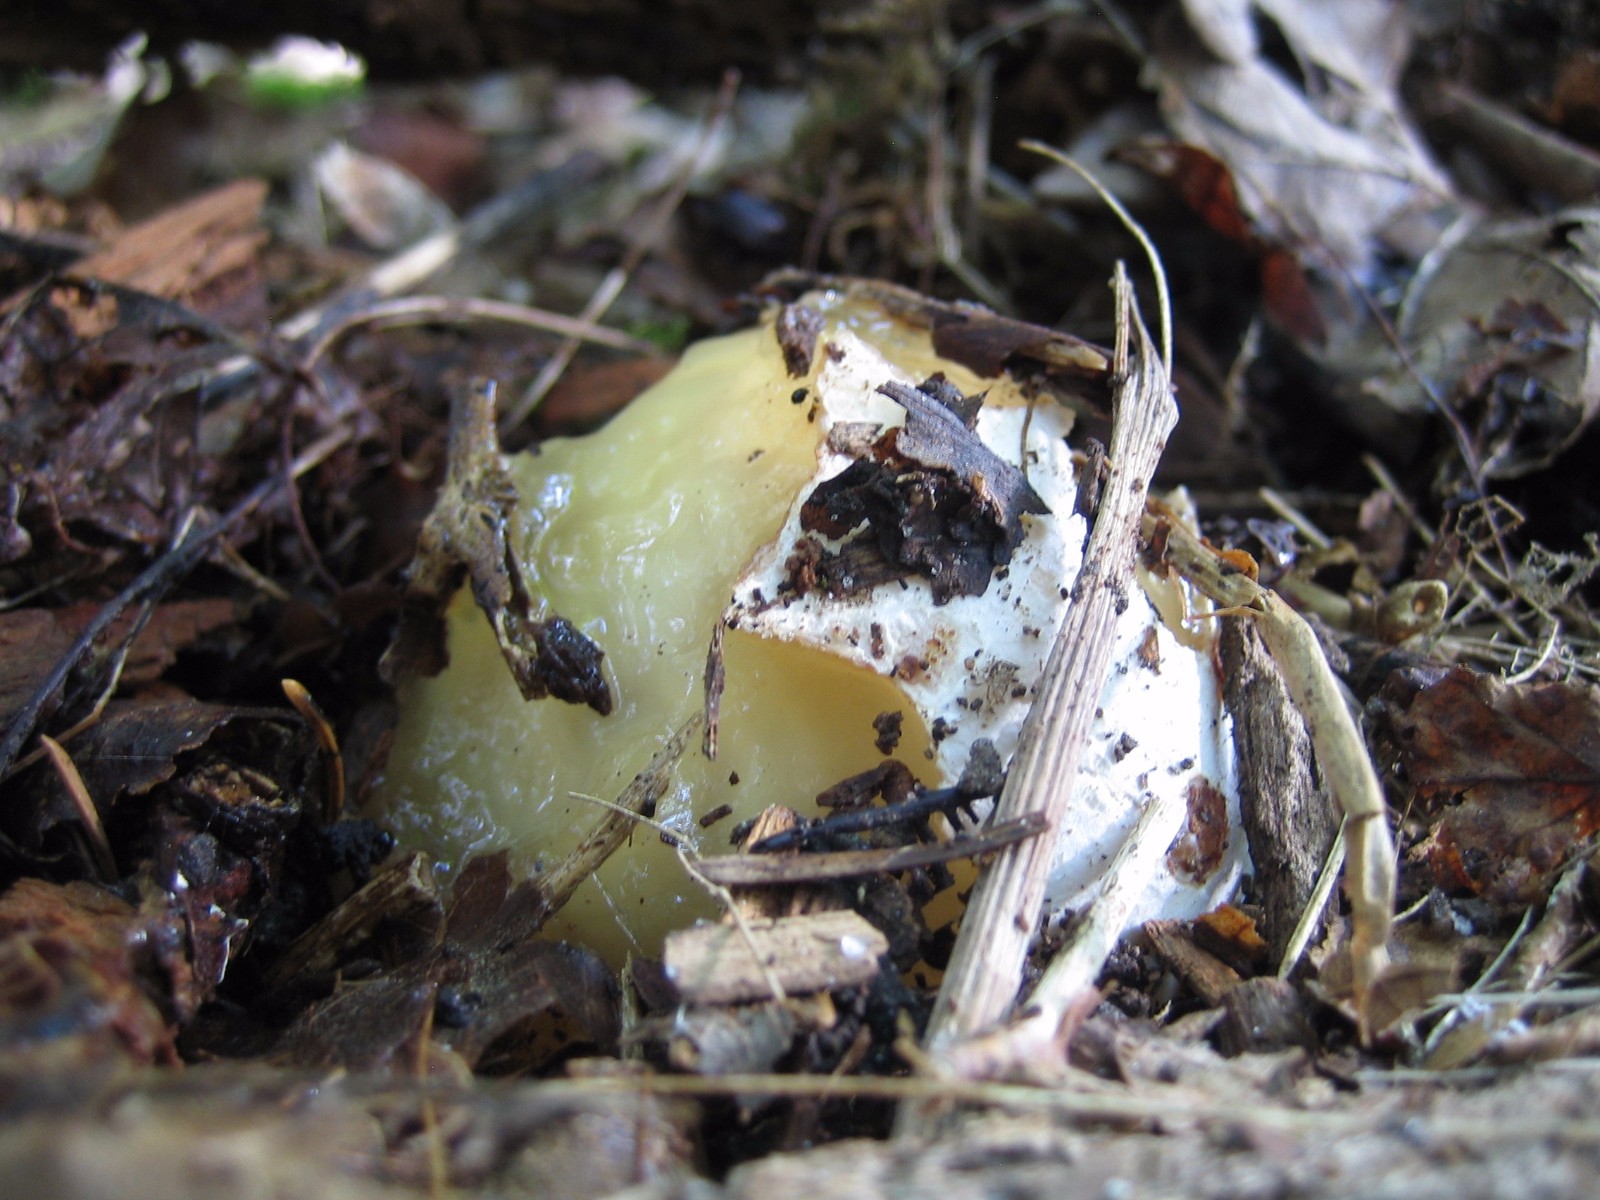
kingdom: Fungi
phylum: Basidiomycota
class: Agaricomycetes
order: Phallales
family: Phallaceae
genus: Phallus
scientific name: Phallus impudicus
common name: almindelig stinksvamp
